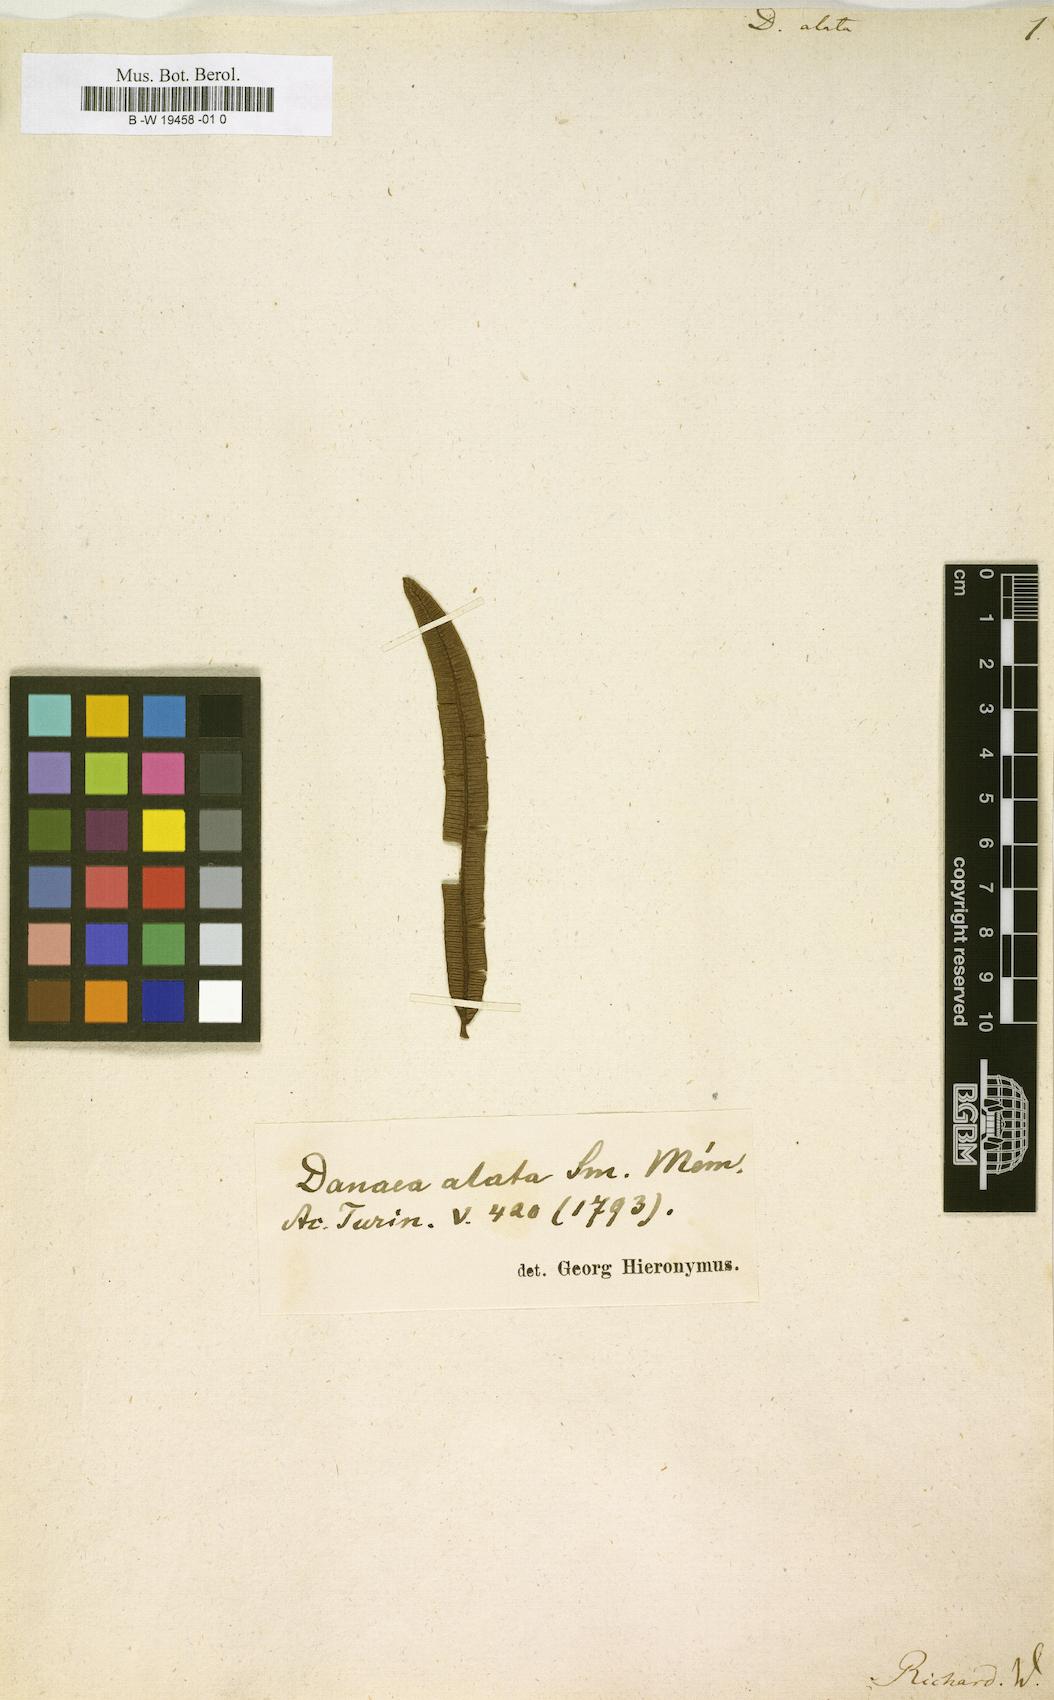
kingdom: Plantae
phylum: Tracheophyta
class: Polypodiopsida
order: Marattiales
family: Marattiaceae
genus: Danaea
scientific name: Danaea alata
